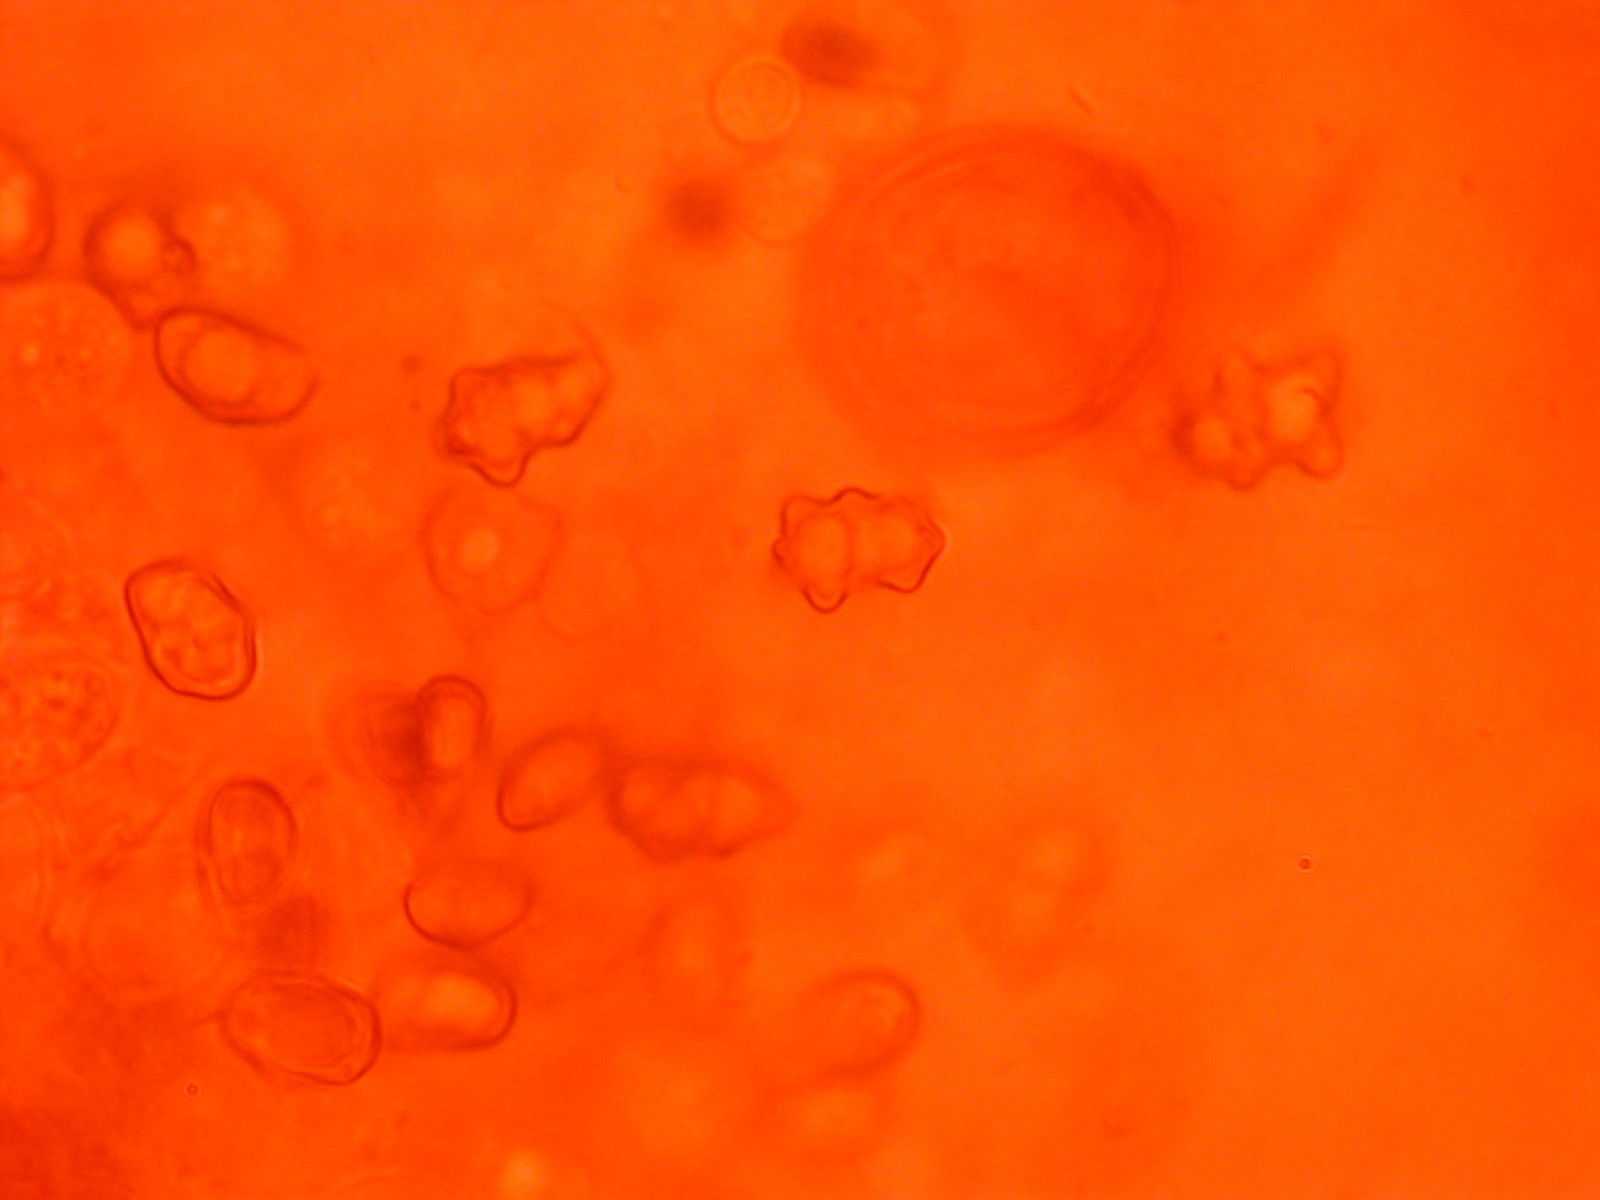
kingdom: Fungi
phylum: Basidiomycota
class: Agaricomycetes
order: Agaricales
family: Inocybaceae
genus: Inocybe
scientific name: Inocybe curvipes
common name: plæne-trævlhat
